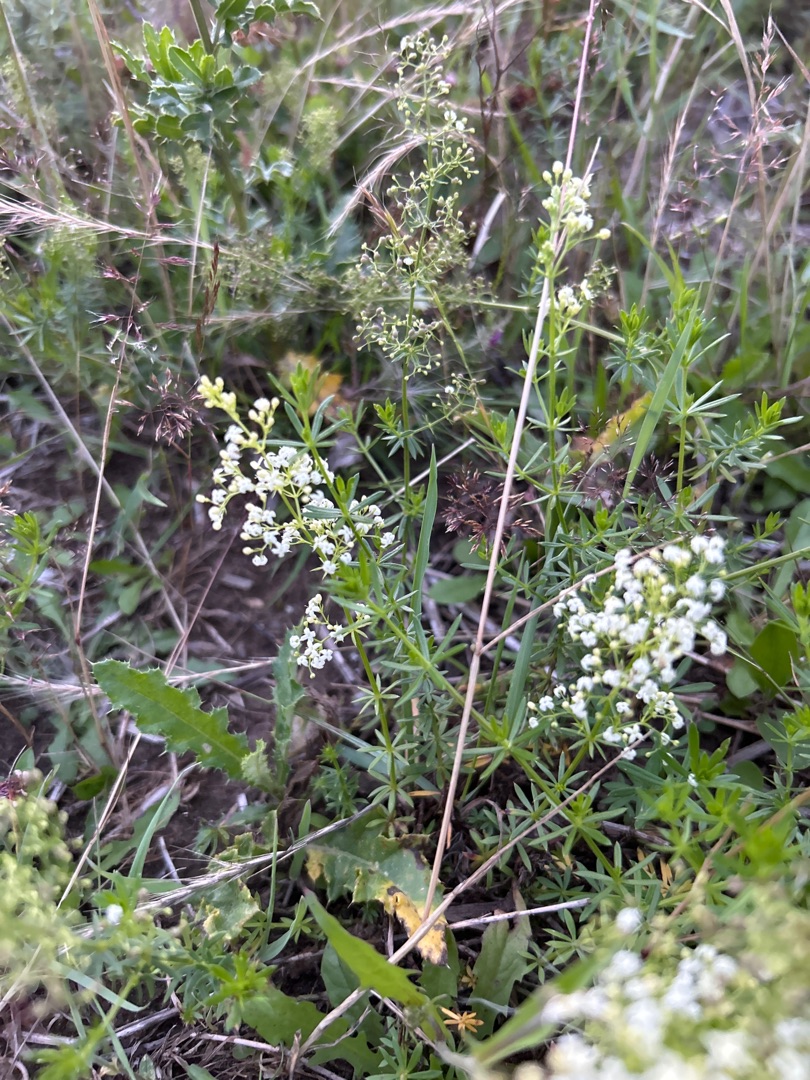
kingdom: Plantae
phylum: Tracheophyta
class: Magnoliopsida
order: Gentianales
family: Rubiaceae
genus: Galium
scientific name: Galium mollugo
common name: Hvid snerre
